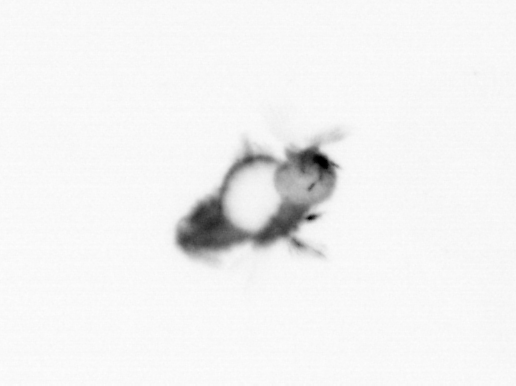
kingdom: Animalia
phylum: Annelida
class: Polychaeta
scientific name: Polychaeta
